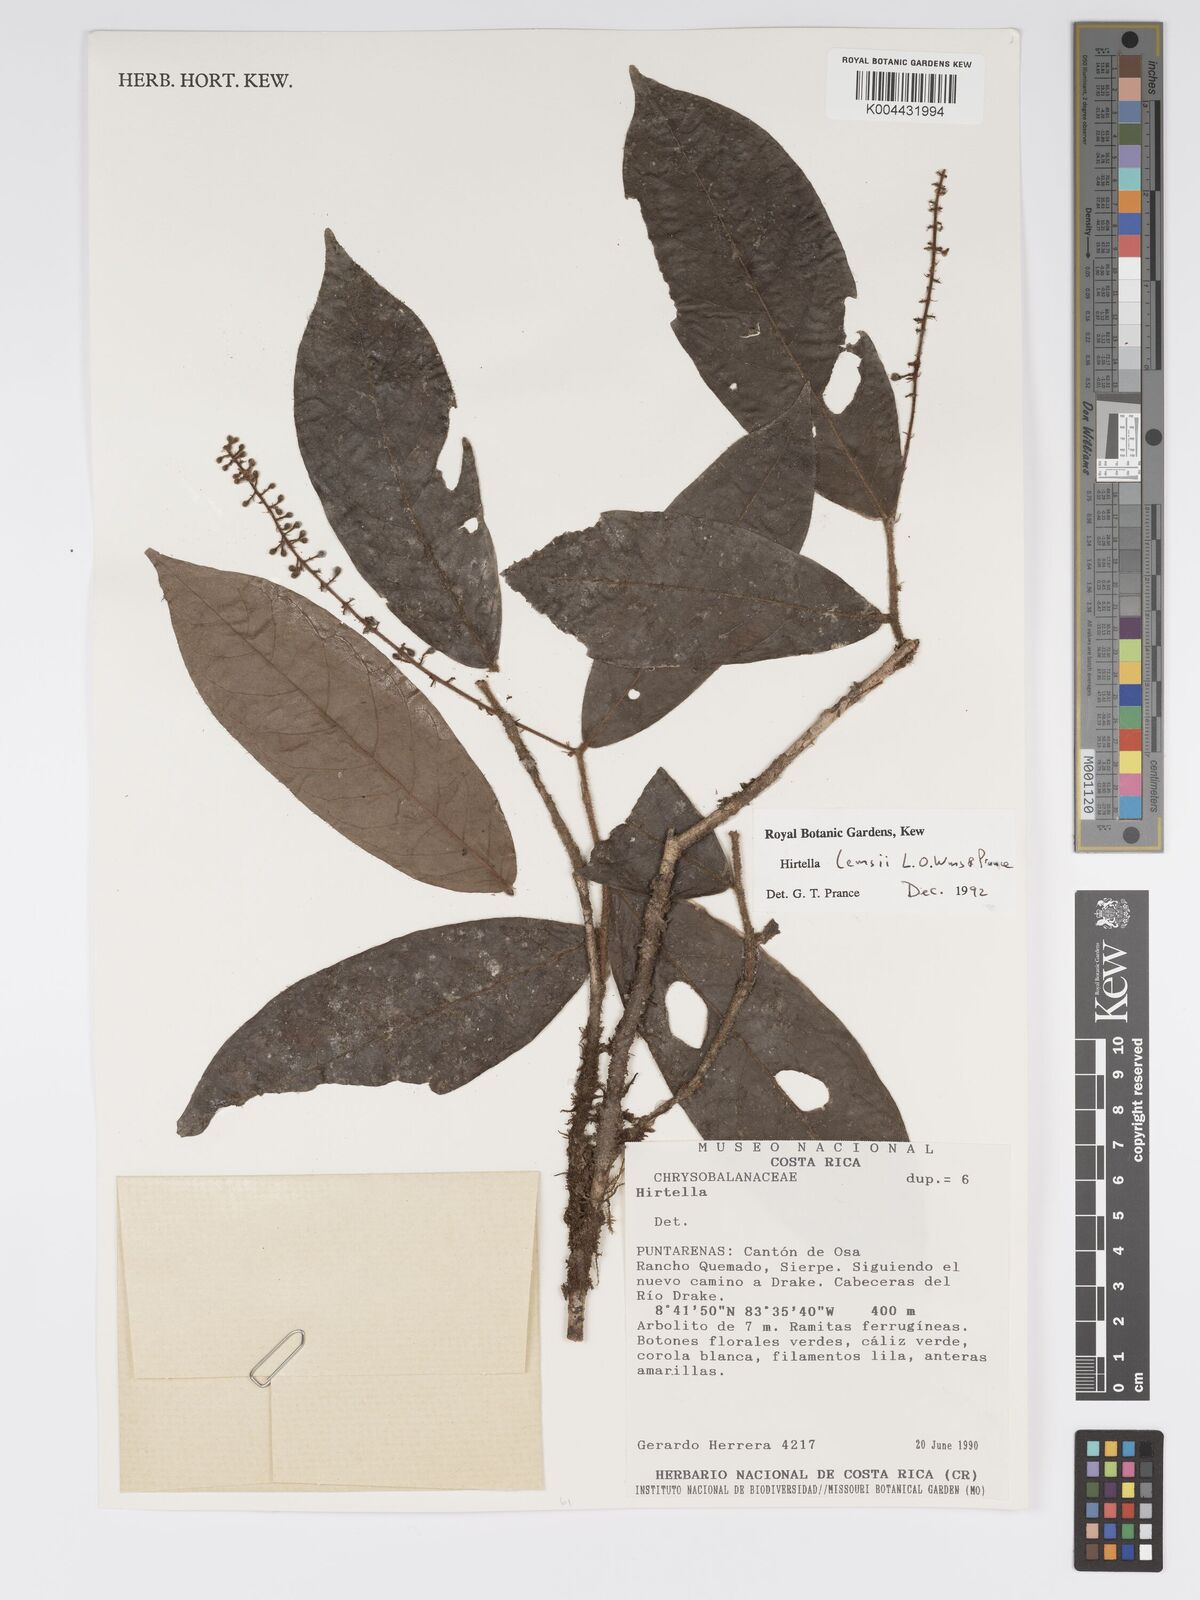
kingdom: Plantae
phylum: Tracheophyta
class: Magnoliopsida
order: Malpighiales
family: Chrysobalanaceae
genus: Hirtella
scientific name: Hirtella lemsii
